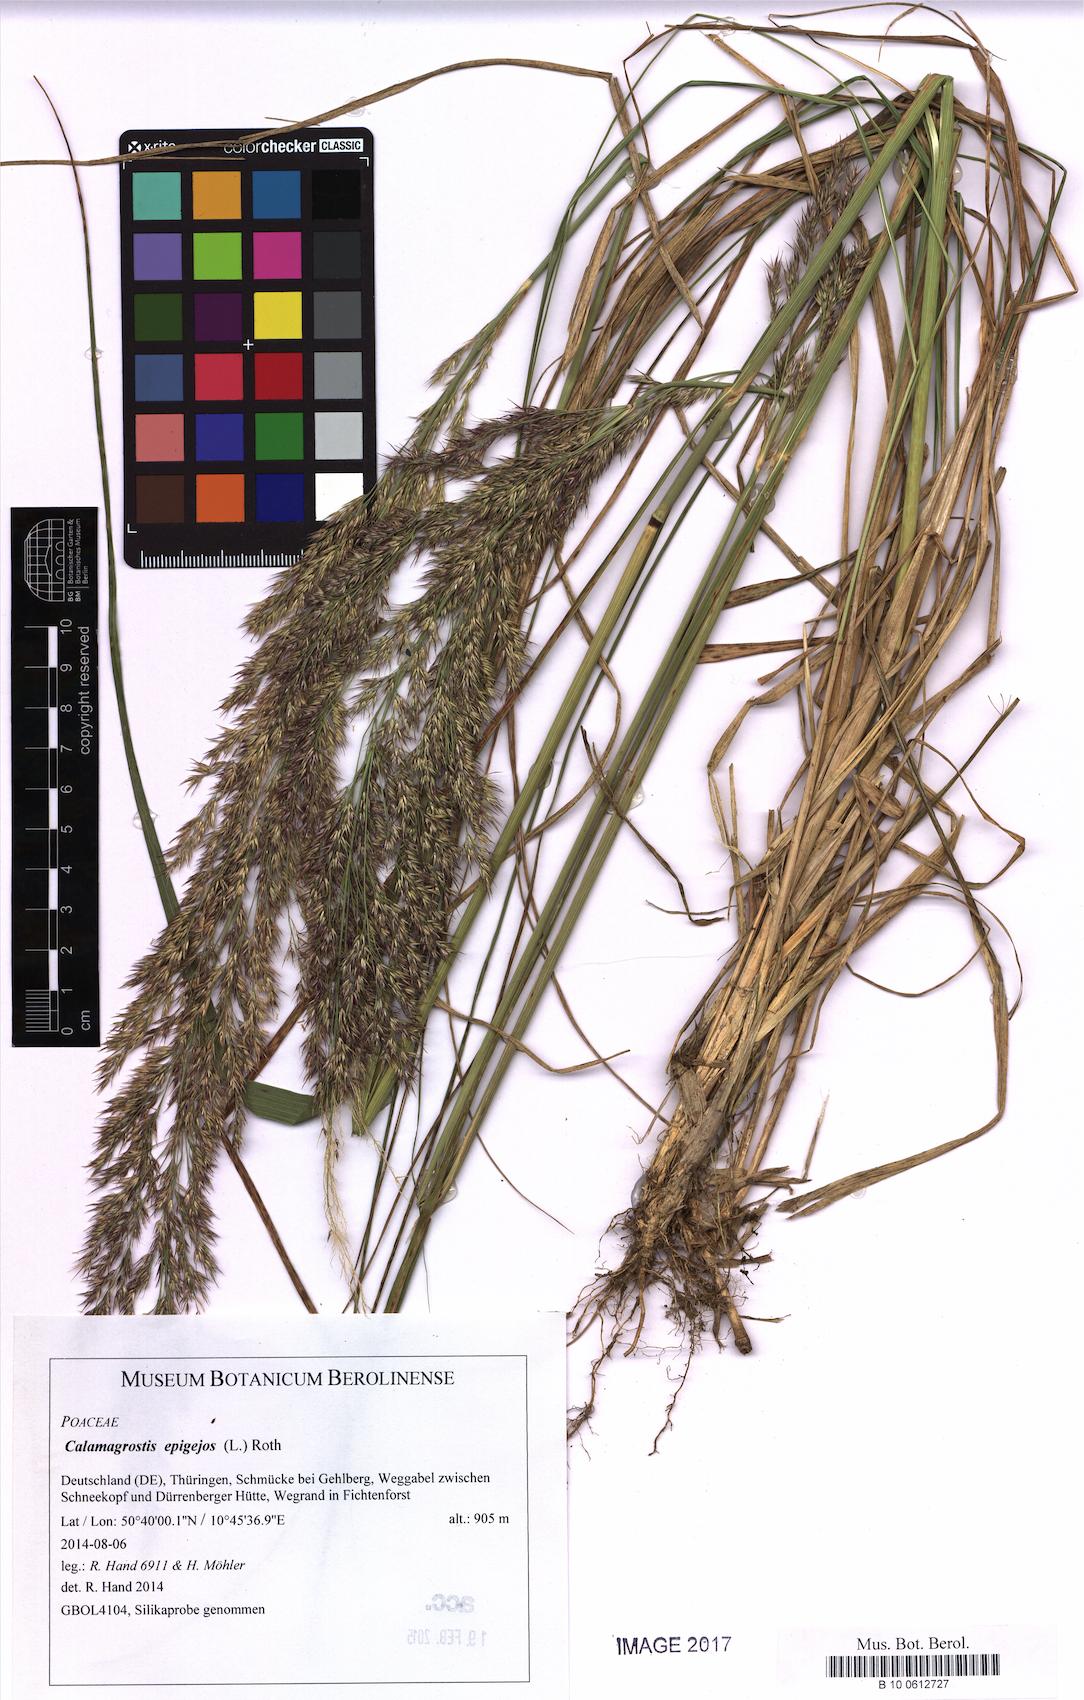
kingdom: Plantae
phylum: Tracheophyta
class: Liliopsida
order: Poales
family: Poaceae
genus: Calamagrostis
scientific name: Calamagrostis epigejos
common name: Wood small-reed
